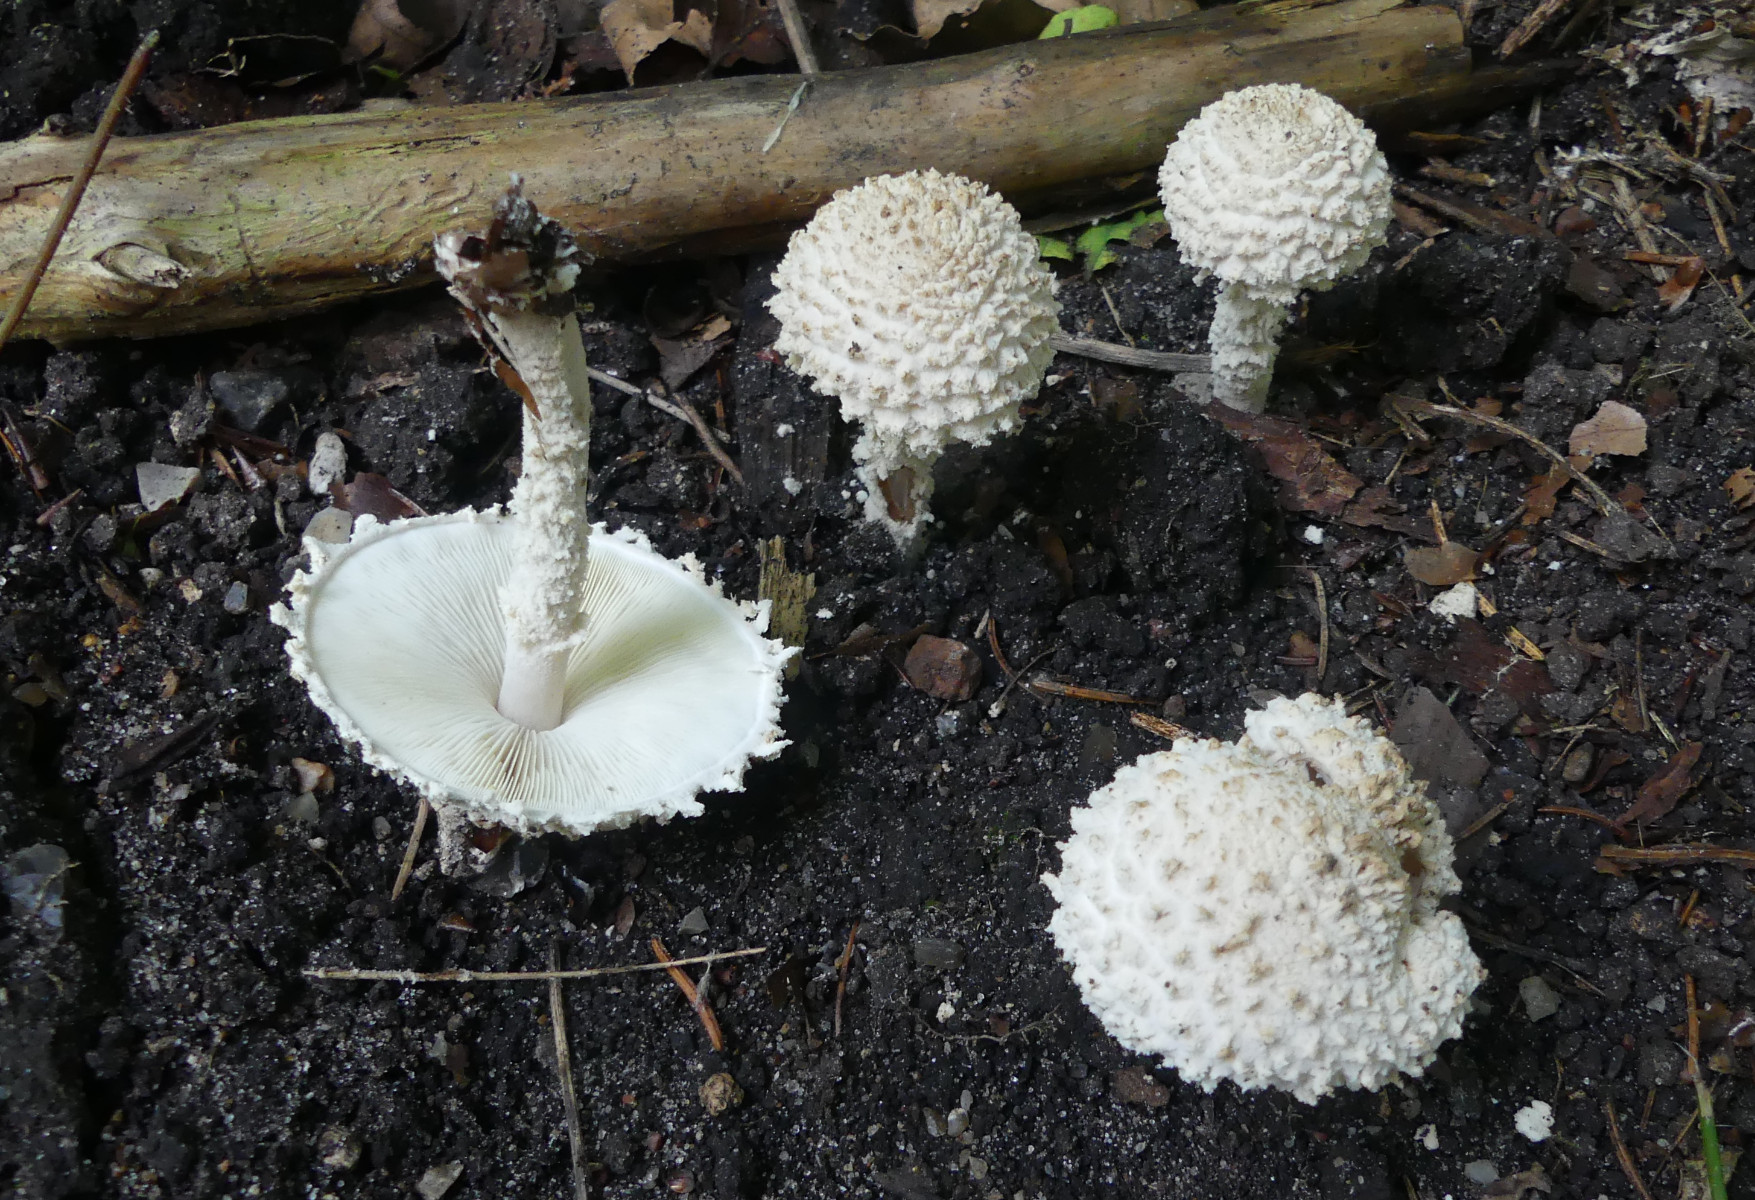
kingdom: Fungi
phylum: Basidiomycota
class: Agaricomycetes
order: Agaricales
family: Agaricaceae
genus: Cystolepiota
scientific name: Cystolepiota adulterina
